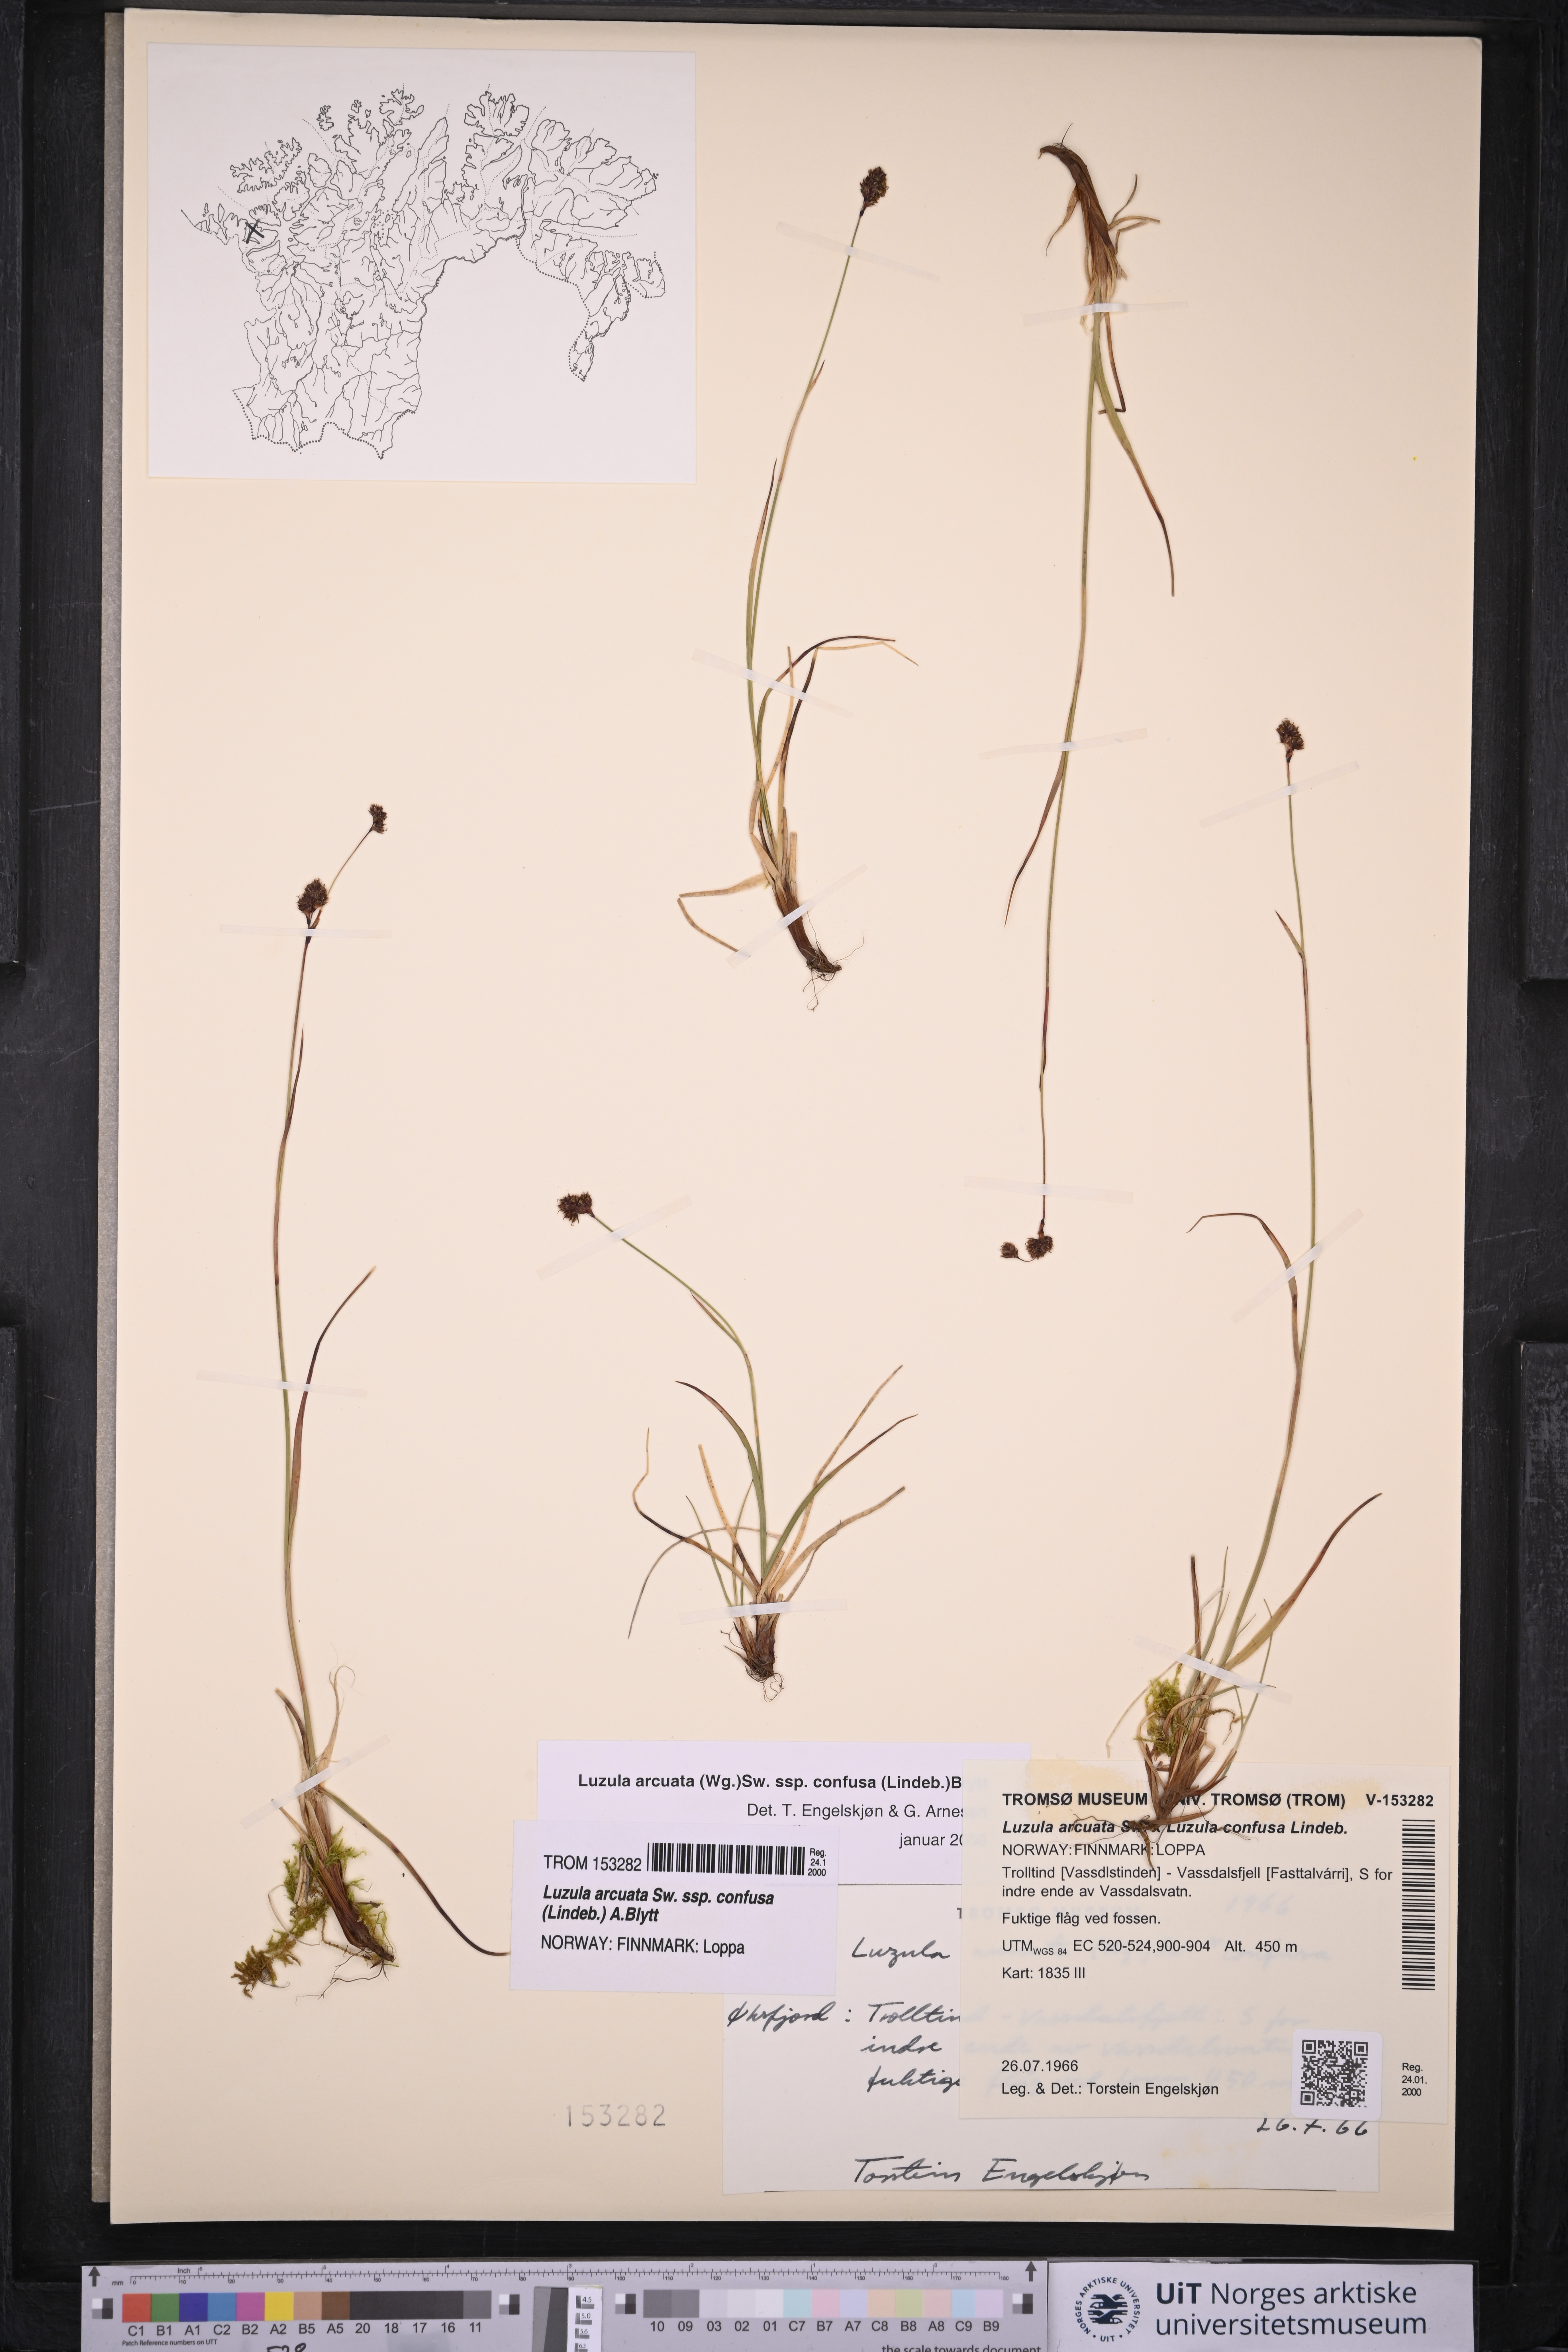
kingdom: Plantae
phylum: Tracheophyta
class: Liliopsida
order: Poales
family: Juncaceae
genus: Luzula
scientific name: Luzula confusa
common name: Northern wood rush
